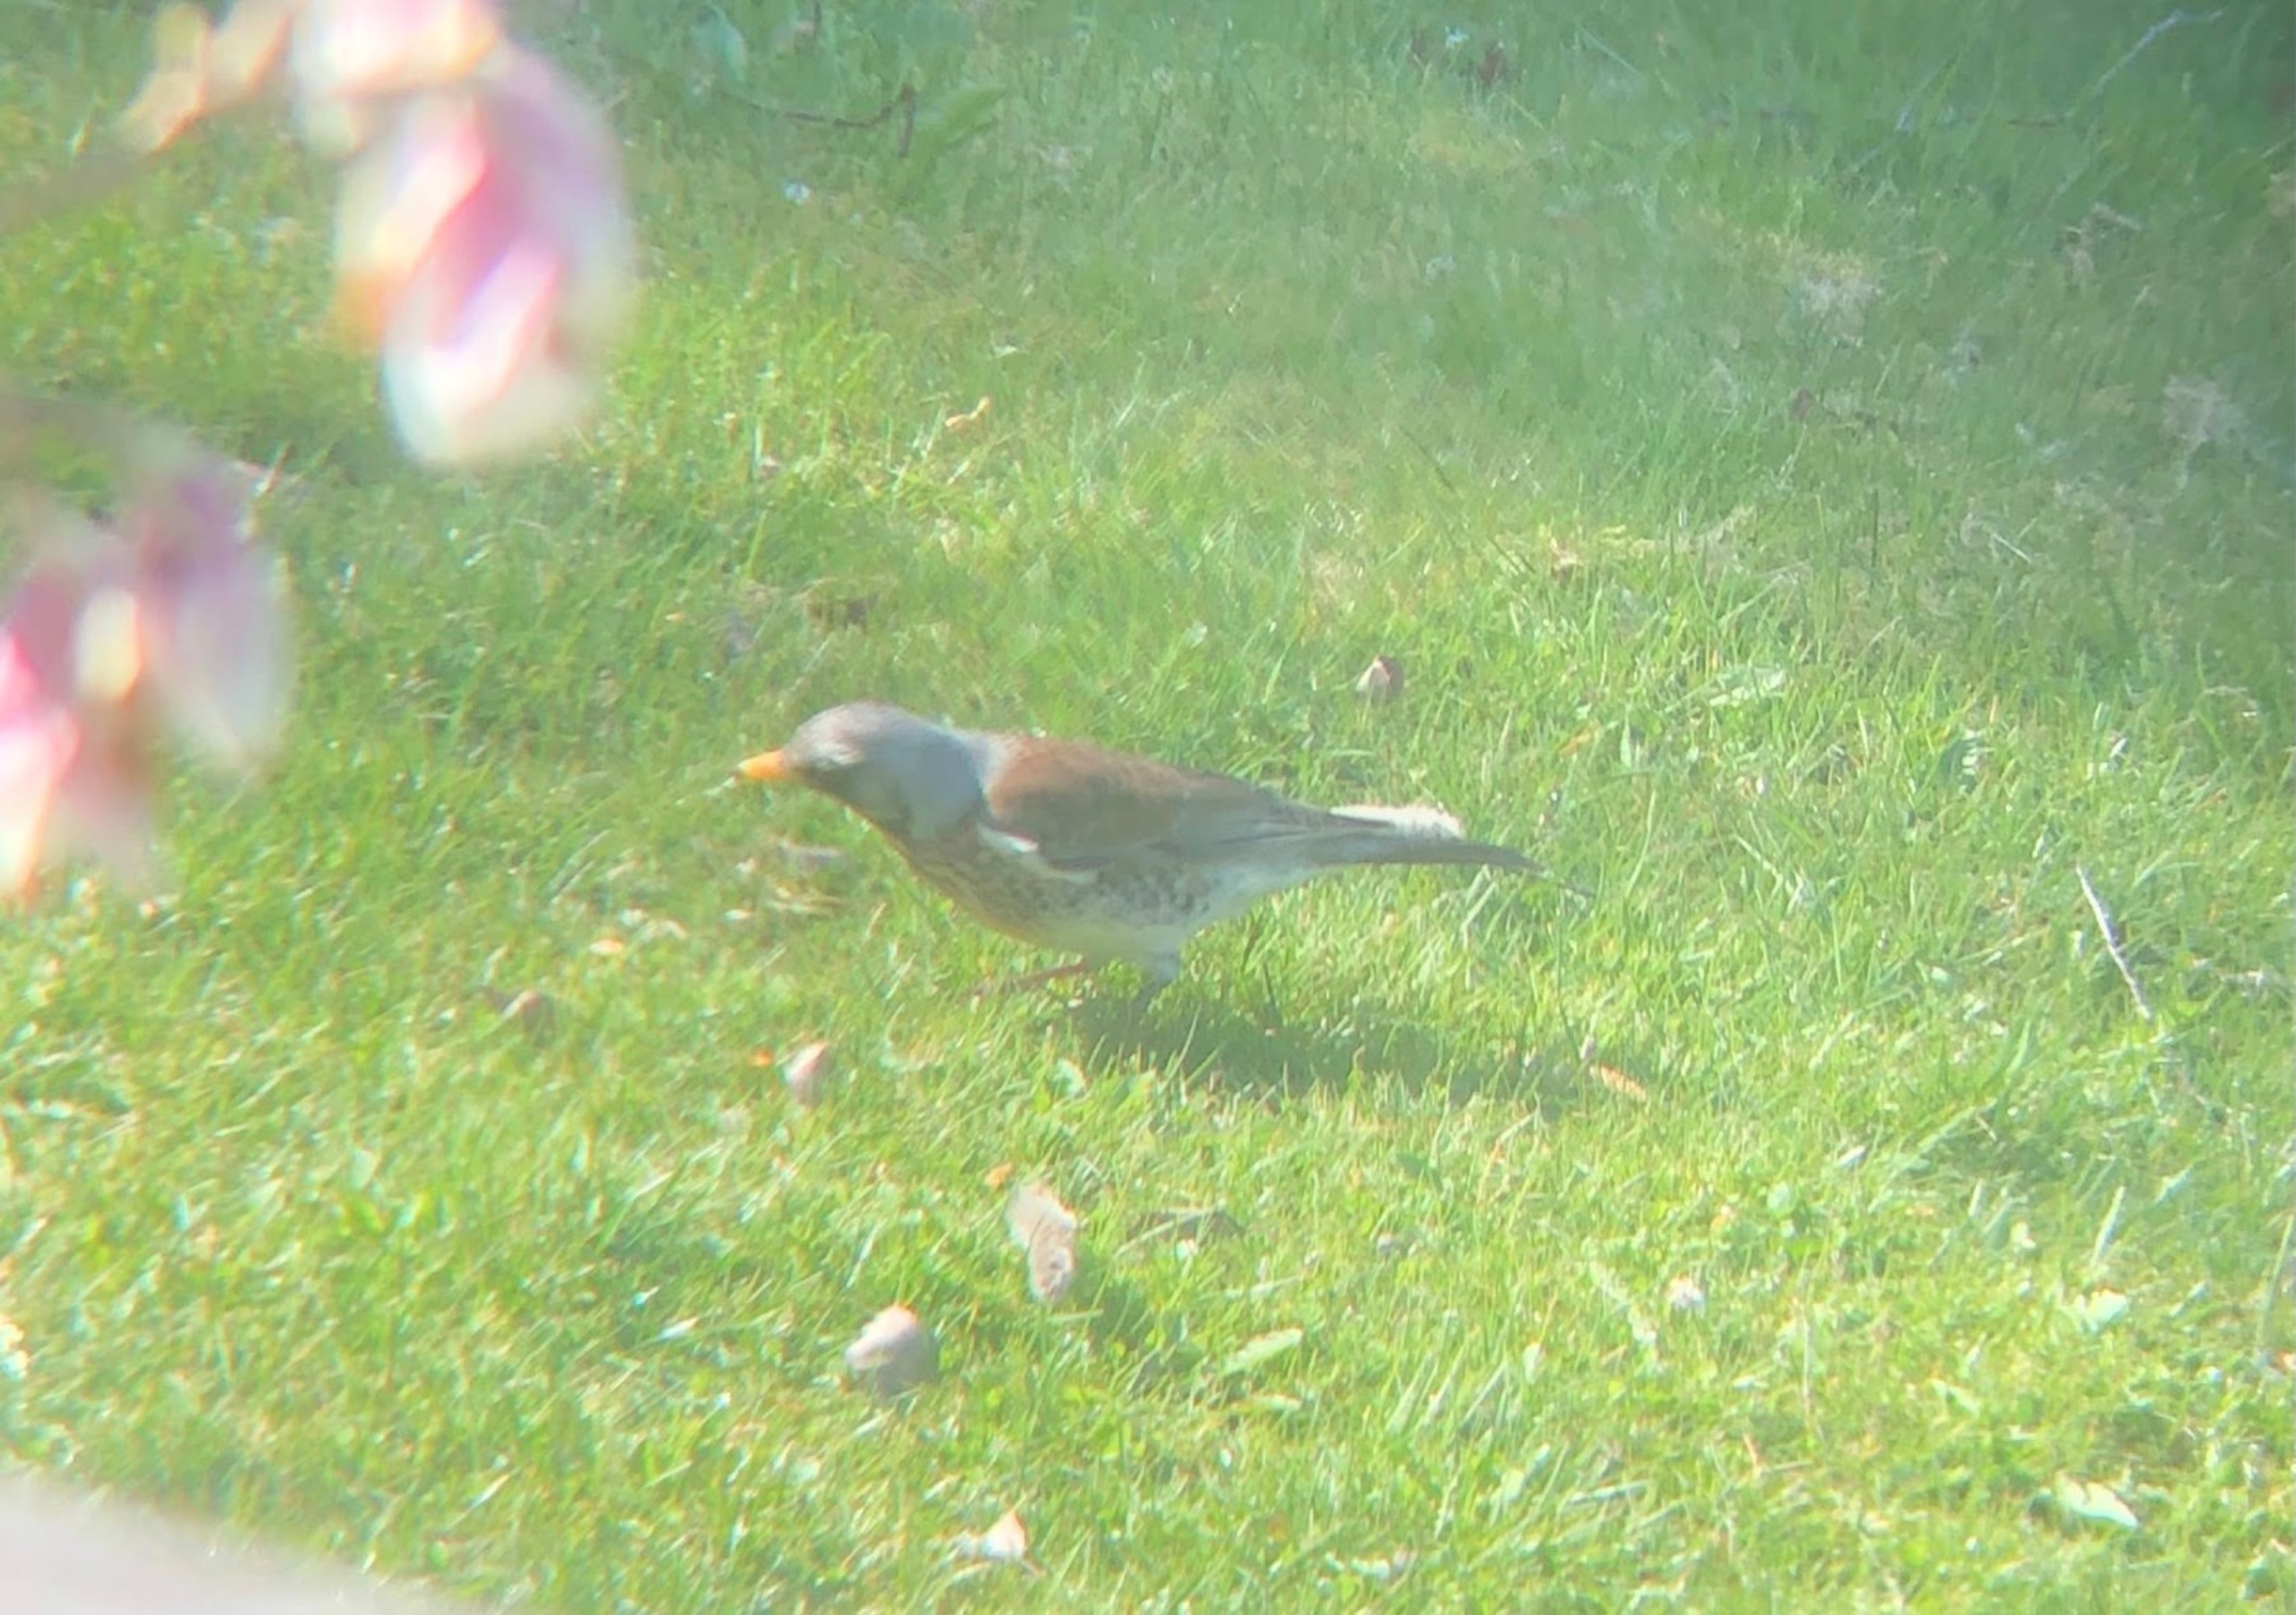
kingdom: Animalia
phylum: Chordata
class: Aves
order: Passeriformes
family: Turdidae
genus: Turdus
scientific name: Turdus pilaris
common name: Sjagger
